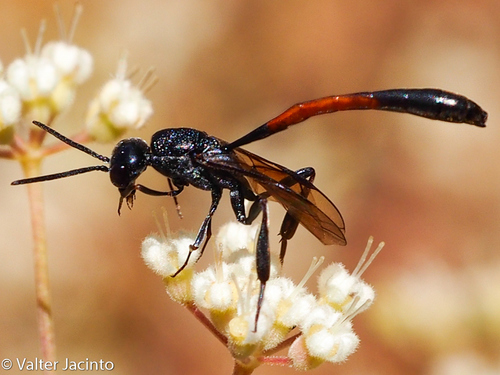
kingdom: Animalia
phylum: Arthropoda
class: Insecta
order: Hymenoptera
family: Gasteruptiidae
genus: Gasteruption
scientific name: Gasteruption
